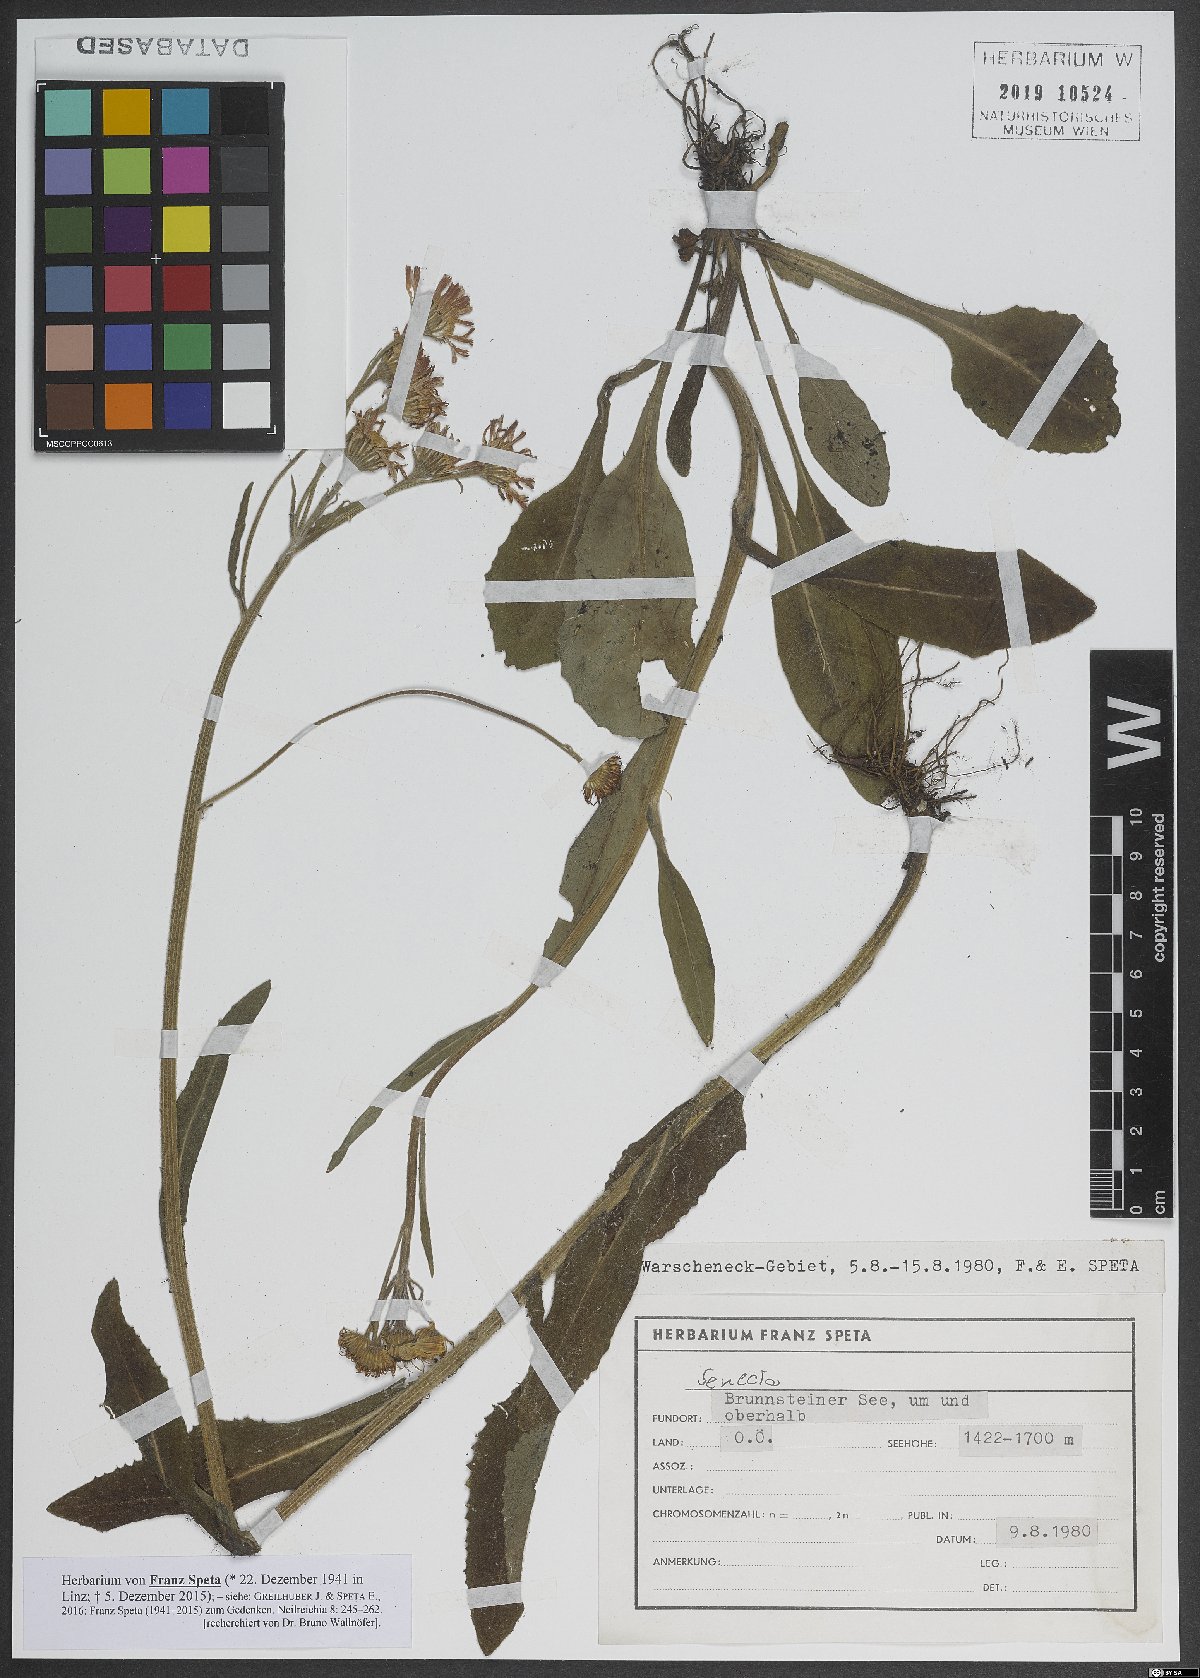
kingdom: Plantae
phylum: Tracheophyta
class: Magnoliopsida
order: Asterales
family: Asteraceae
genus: Tephroseris
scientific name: Tephroseris
